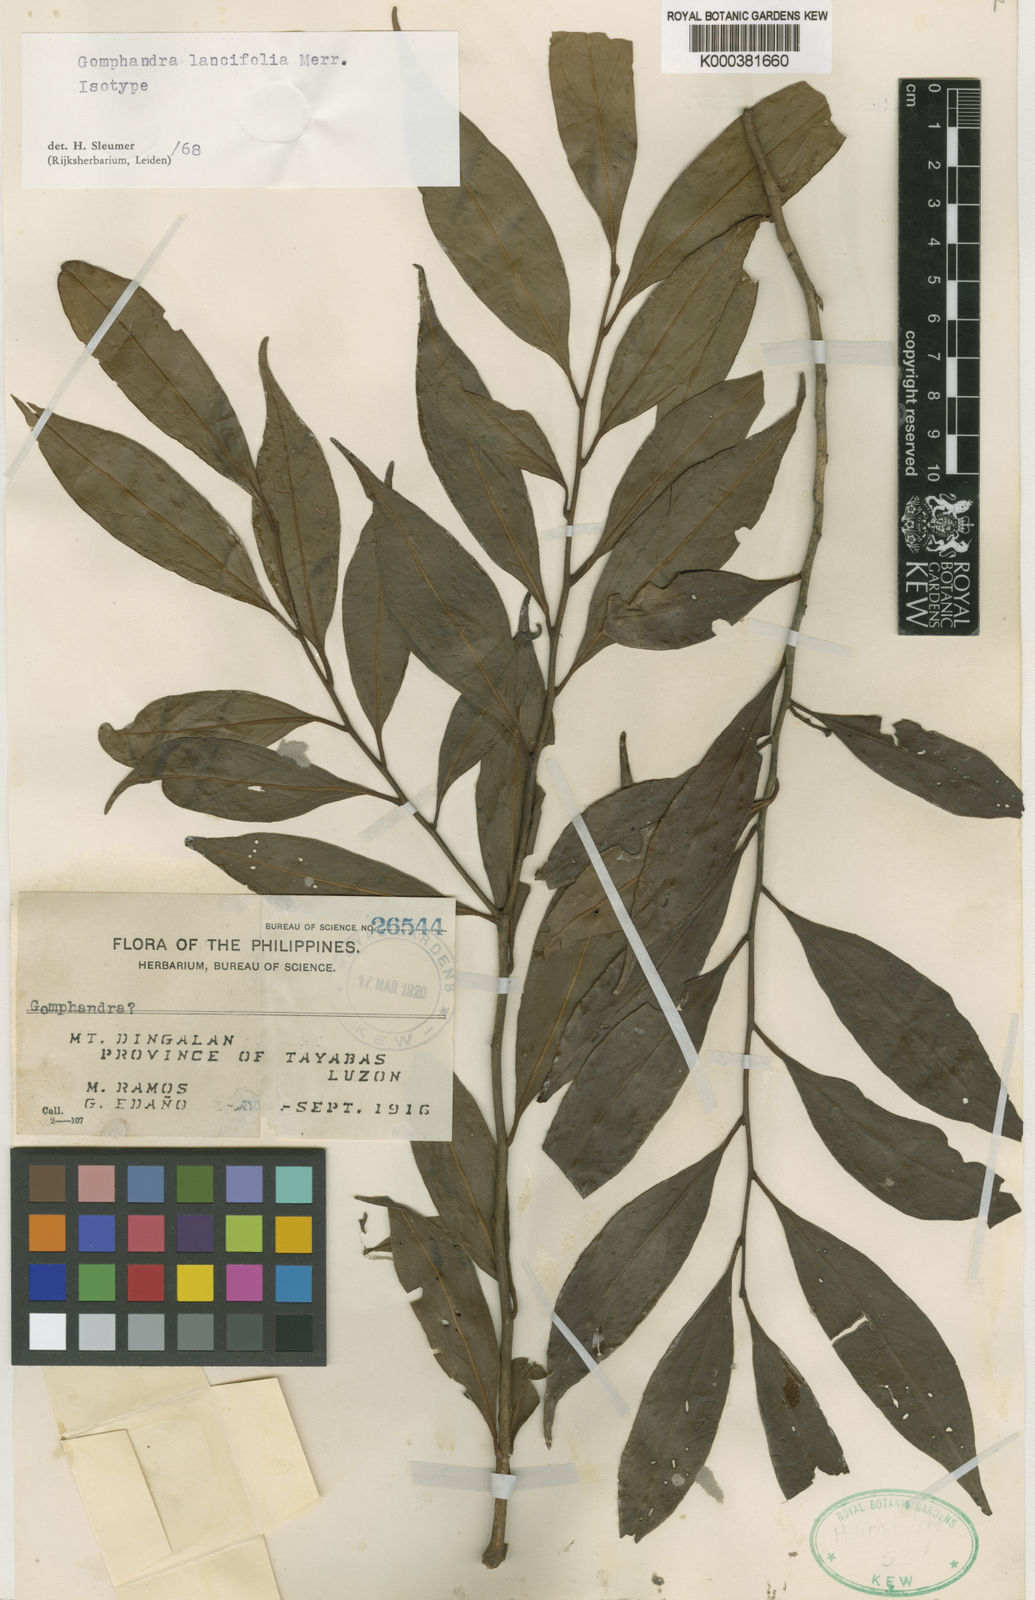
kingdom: Plantae
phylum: Tracheophyta
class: Magnoliopsida
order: Cardiopteridales
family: Stemonuraceae
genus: Gomphandra
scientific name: Gomphandra lancifolia
